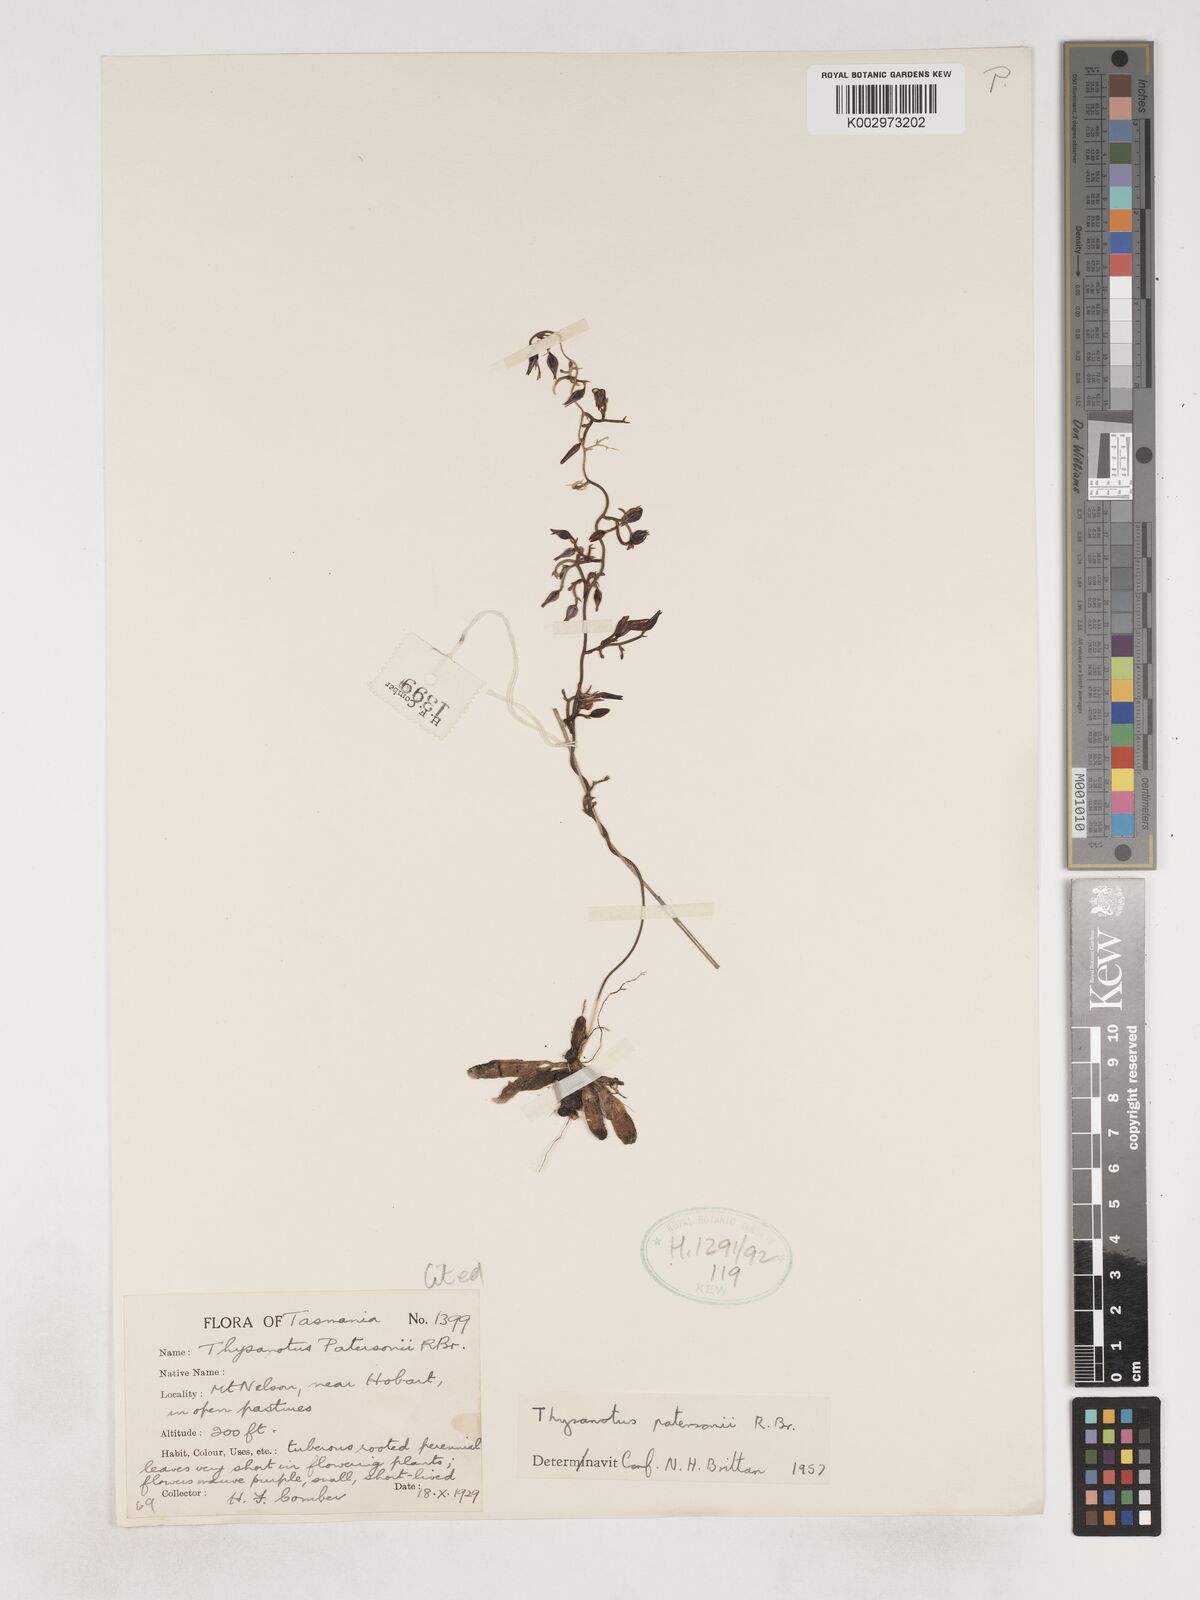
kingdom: Plantae
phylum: Tracheophyta
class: Liliopsida
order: Asparagales
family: Asparagaceae
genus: Thysanotus
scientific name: Thysanotus patersonii
